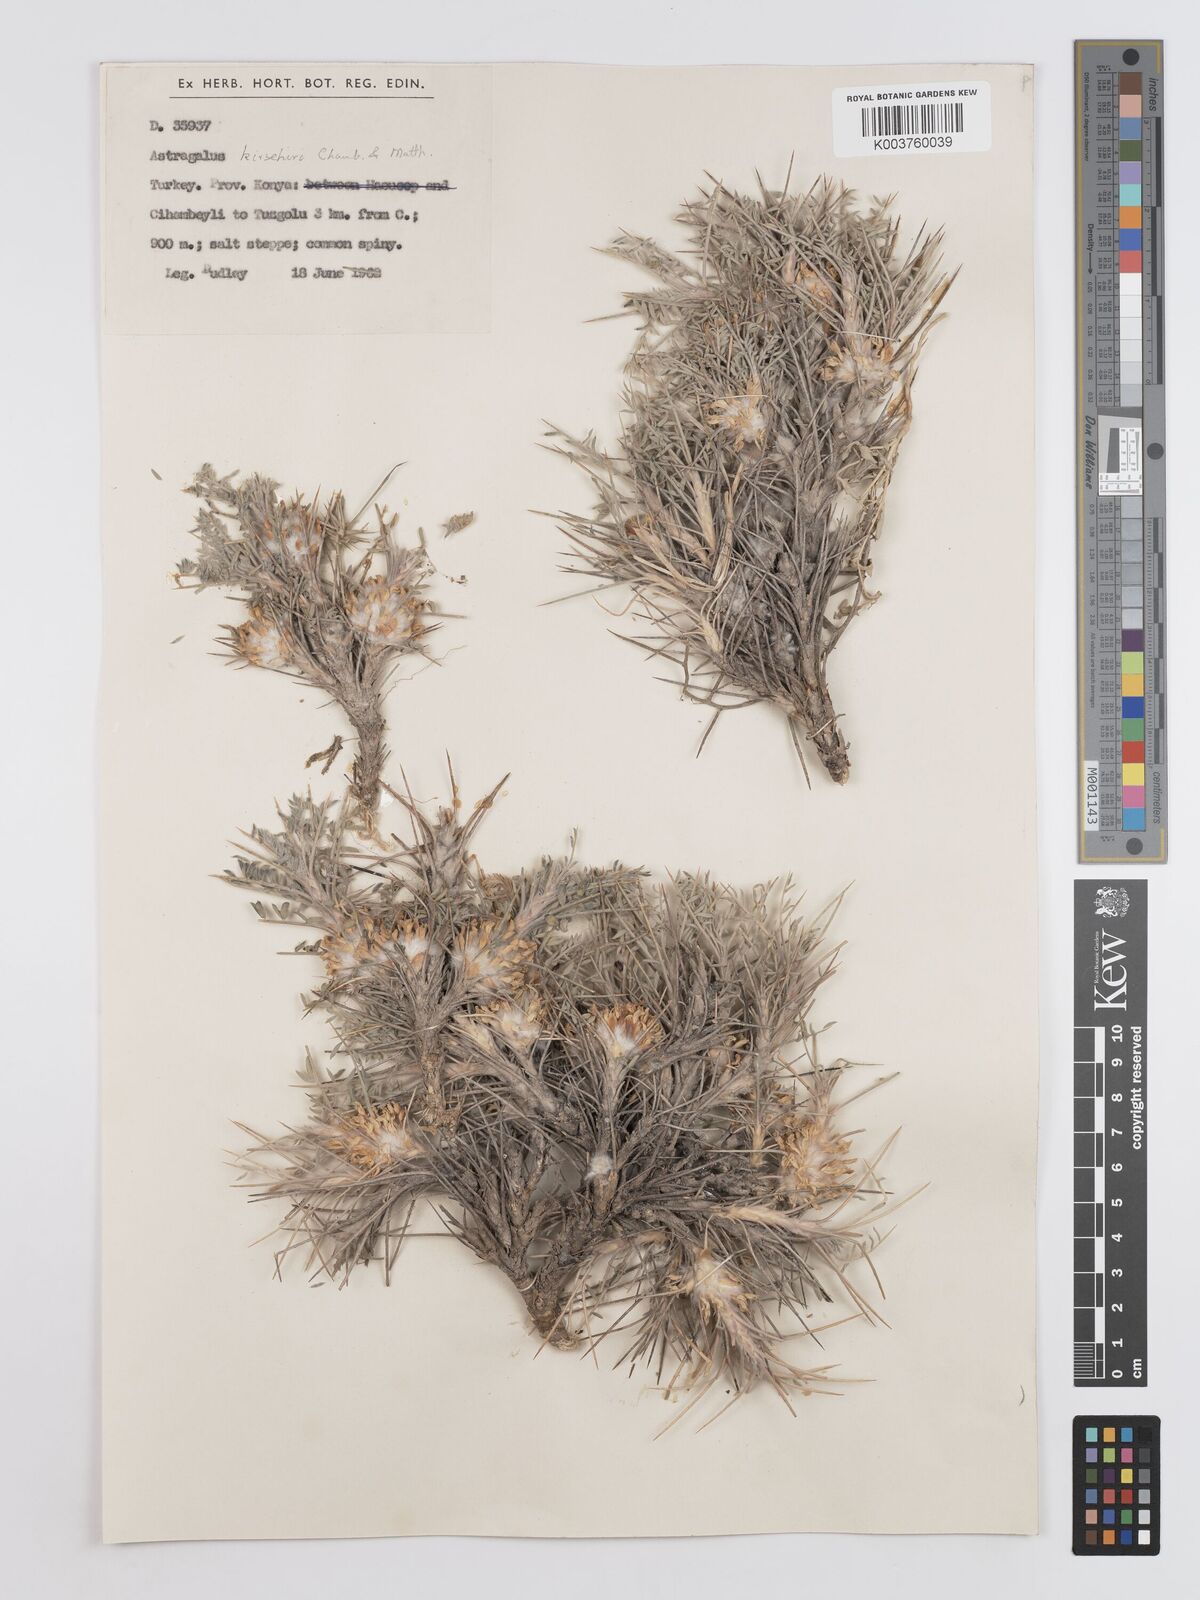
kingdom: Plantae
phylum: Tracheophyta
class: Magnoliopsida
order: Fabales
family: Fabaceae
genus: Astragalus
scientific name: Astragalus kirshehiricus
